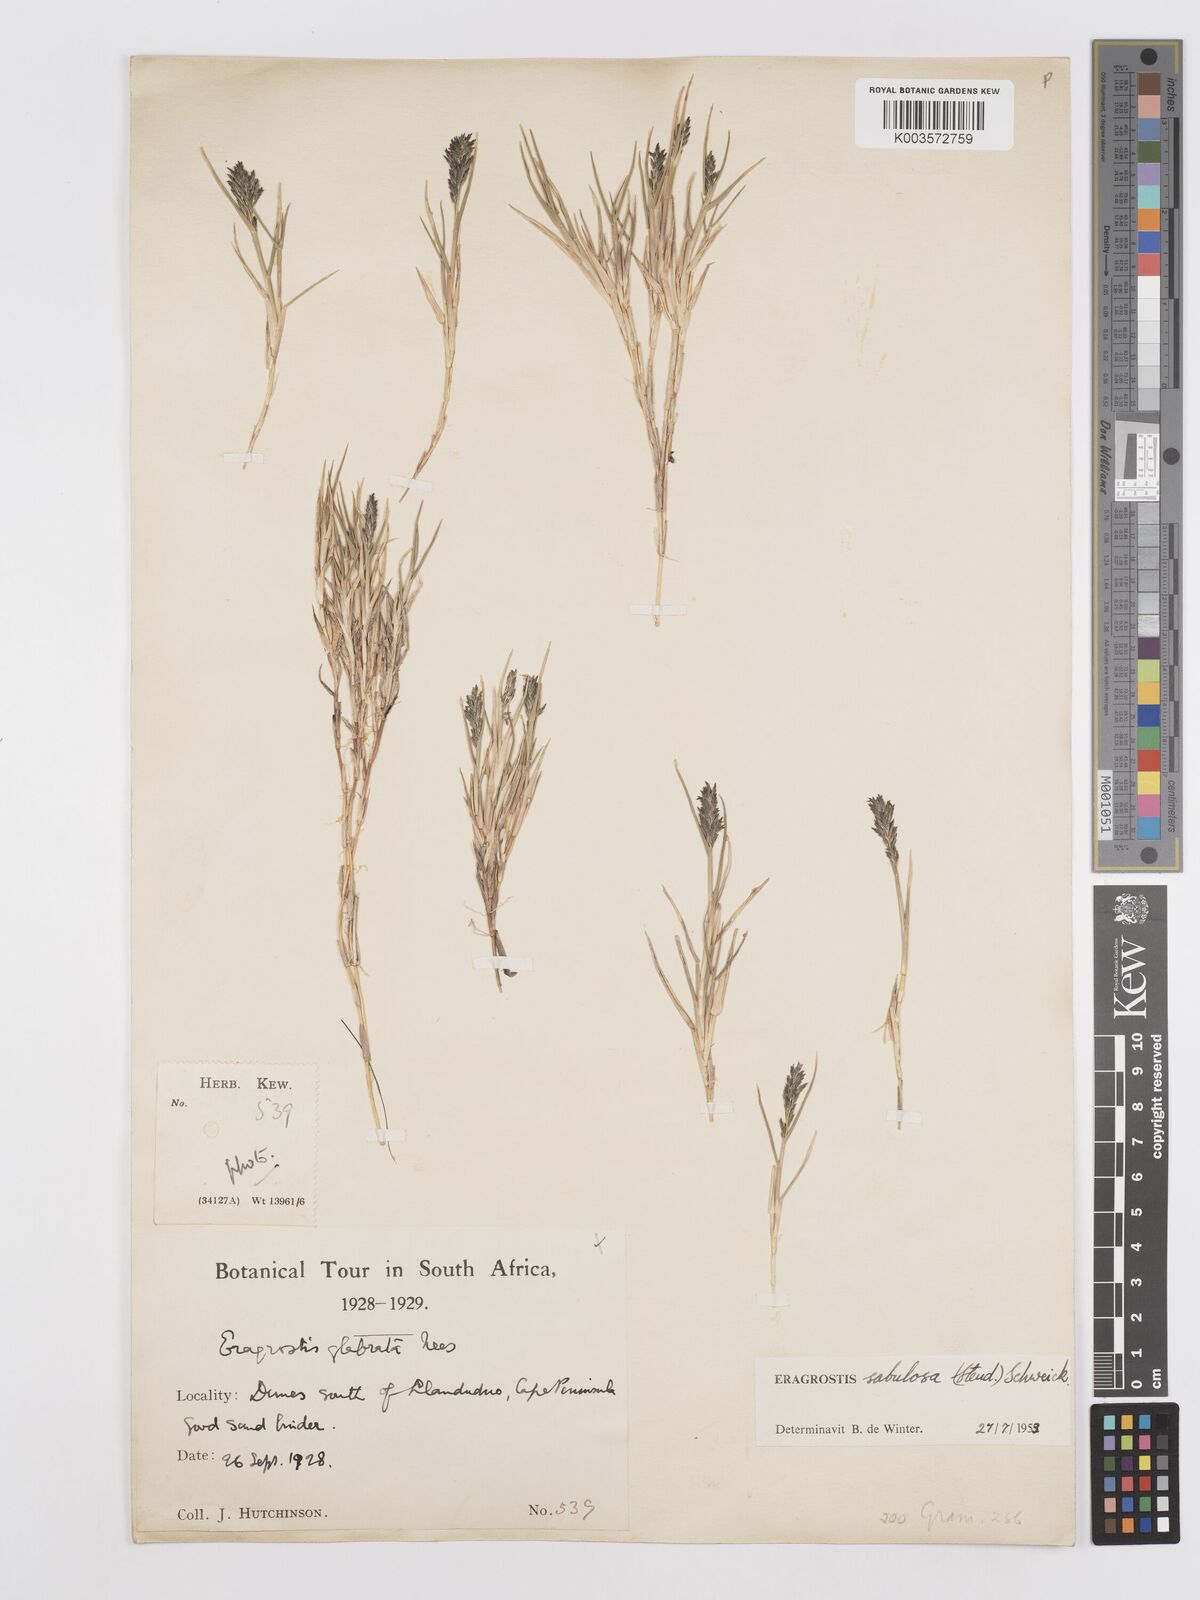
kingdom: Plantae
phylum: Tracheophyta
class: Liliopsida
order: Poales
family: Poaceae
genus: Eragrostis
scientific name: Eragrostis sabulosa
